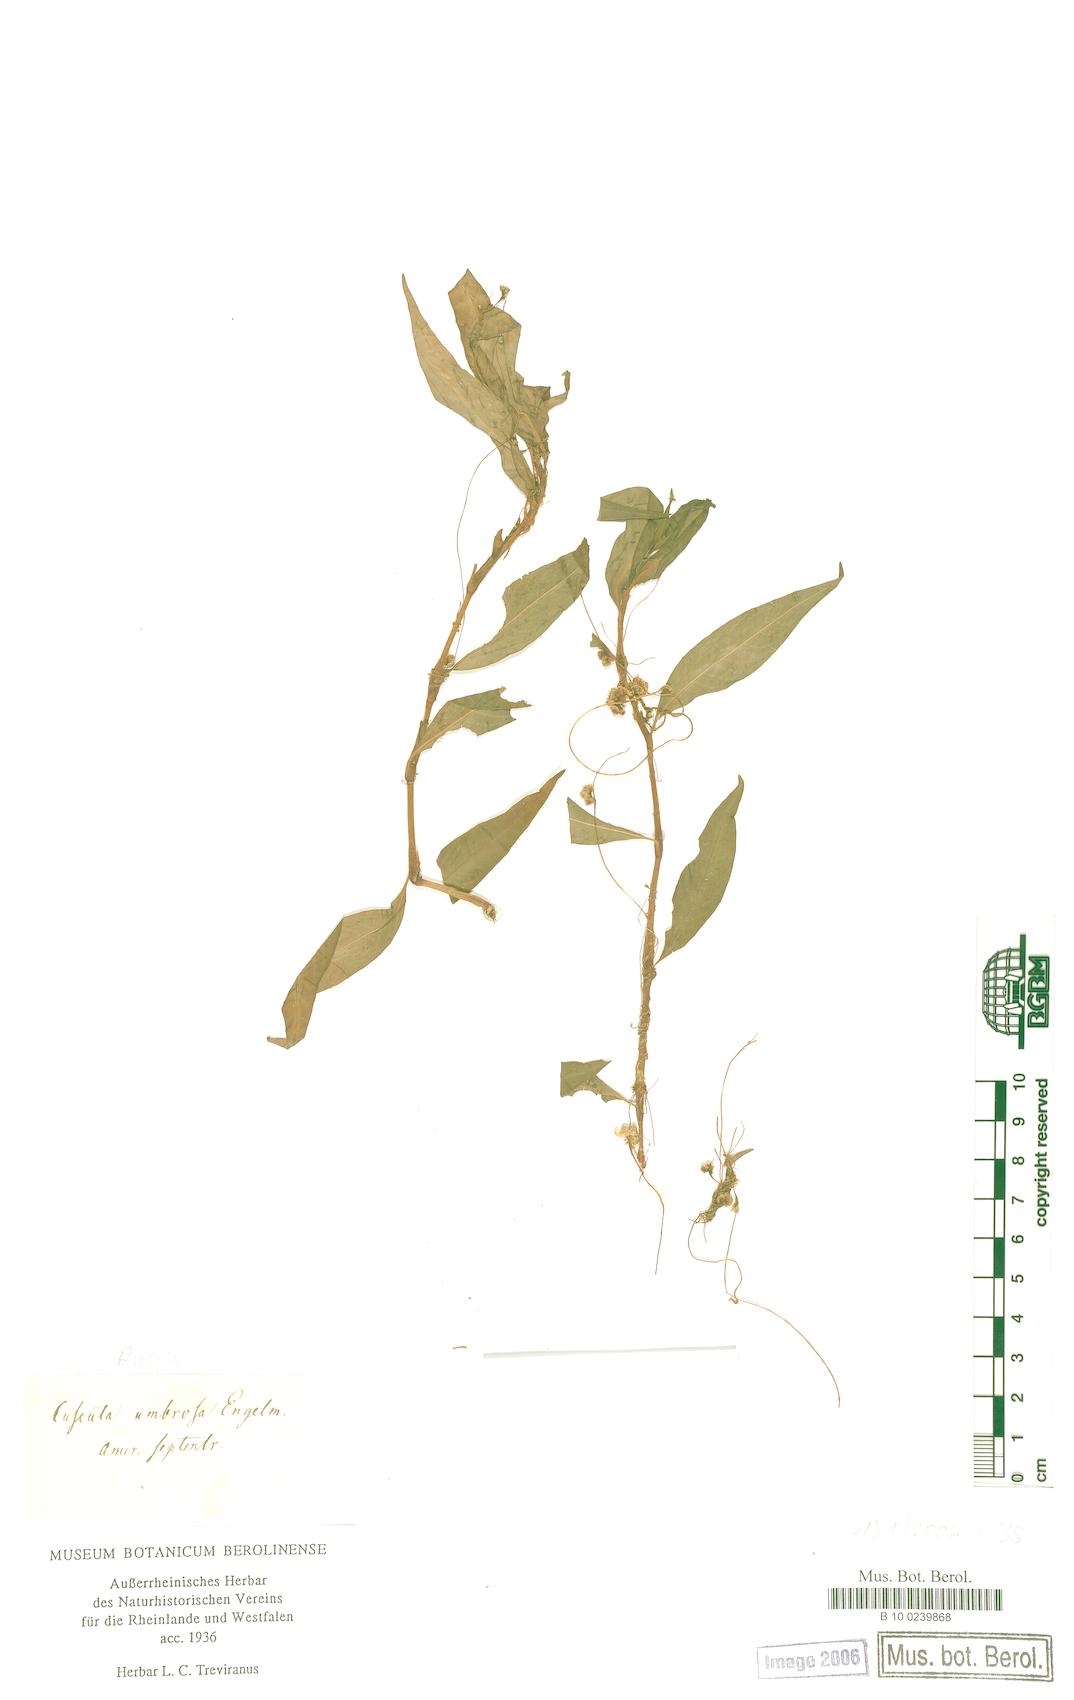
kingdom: Plantae
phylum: Tracheophyta
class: Magnoliopsida
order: Solanales
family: Convolvulaceae
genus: Cuscuta
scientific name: Cuscuta umbrosa
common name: Bigfruit dodder
